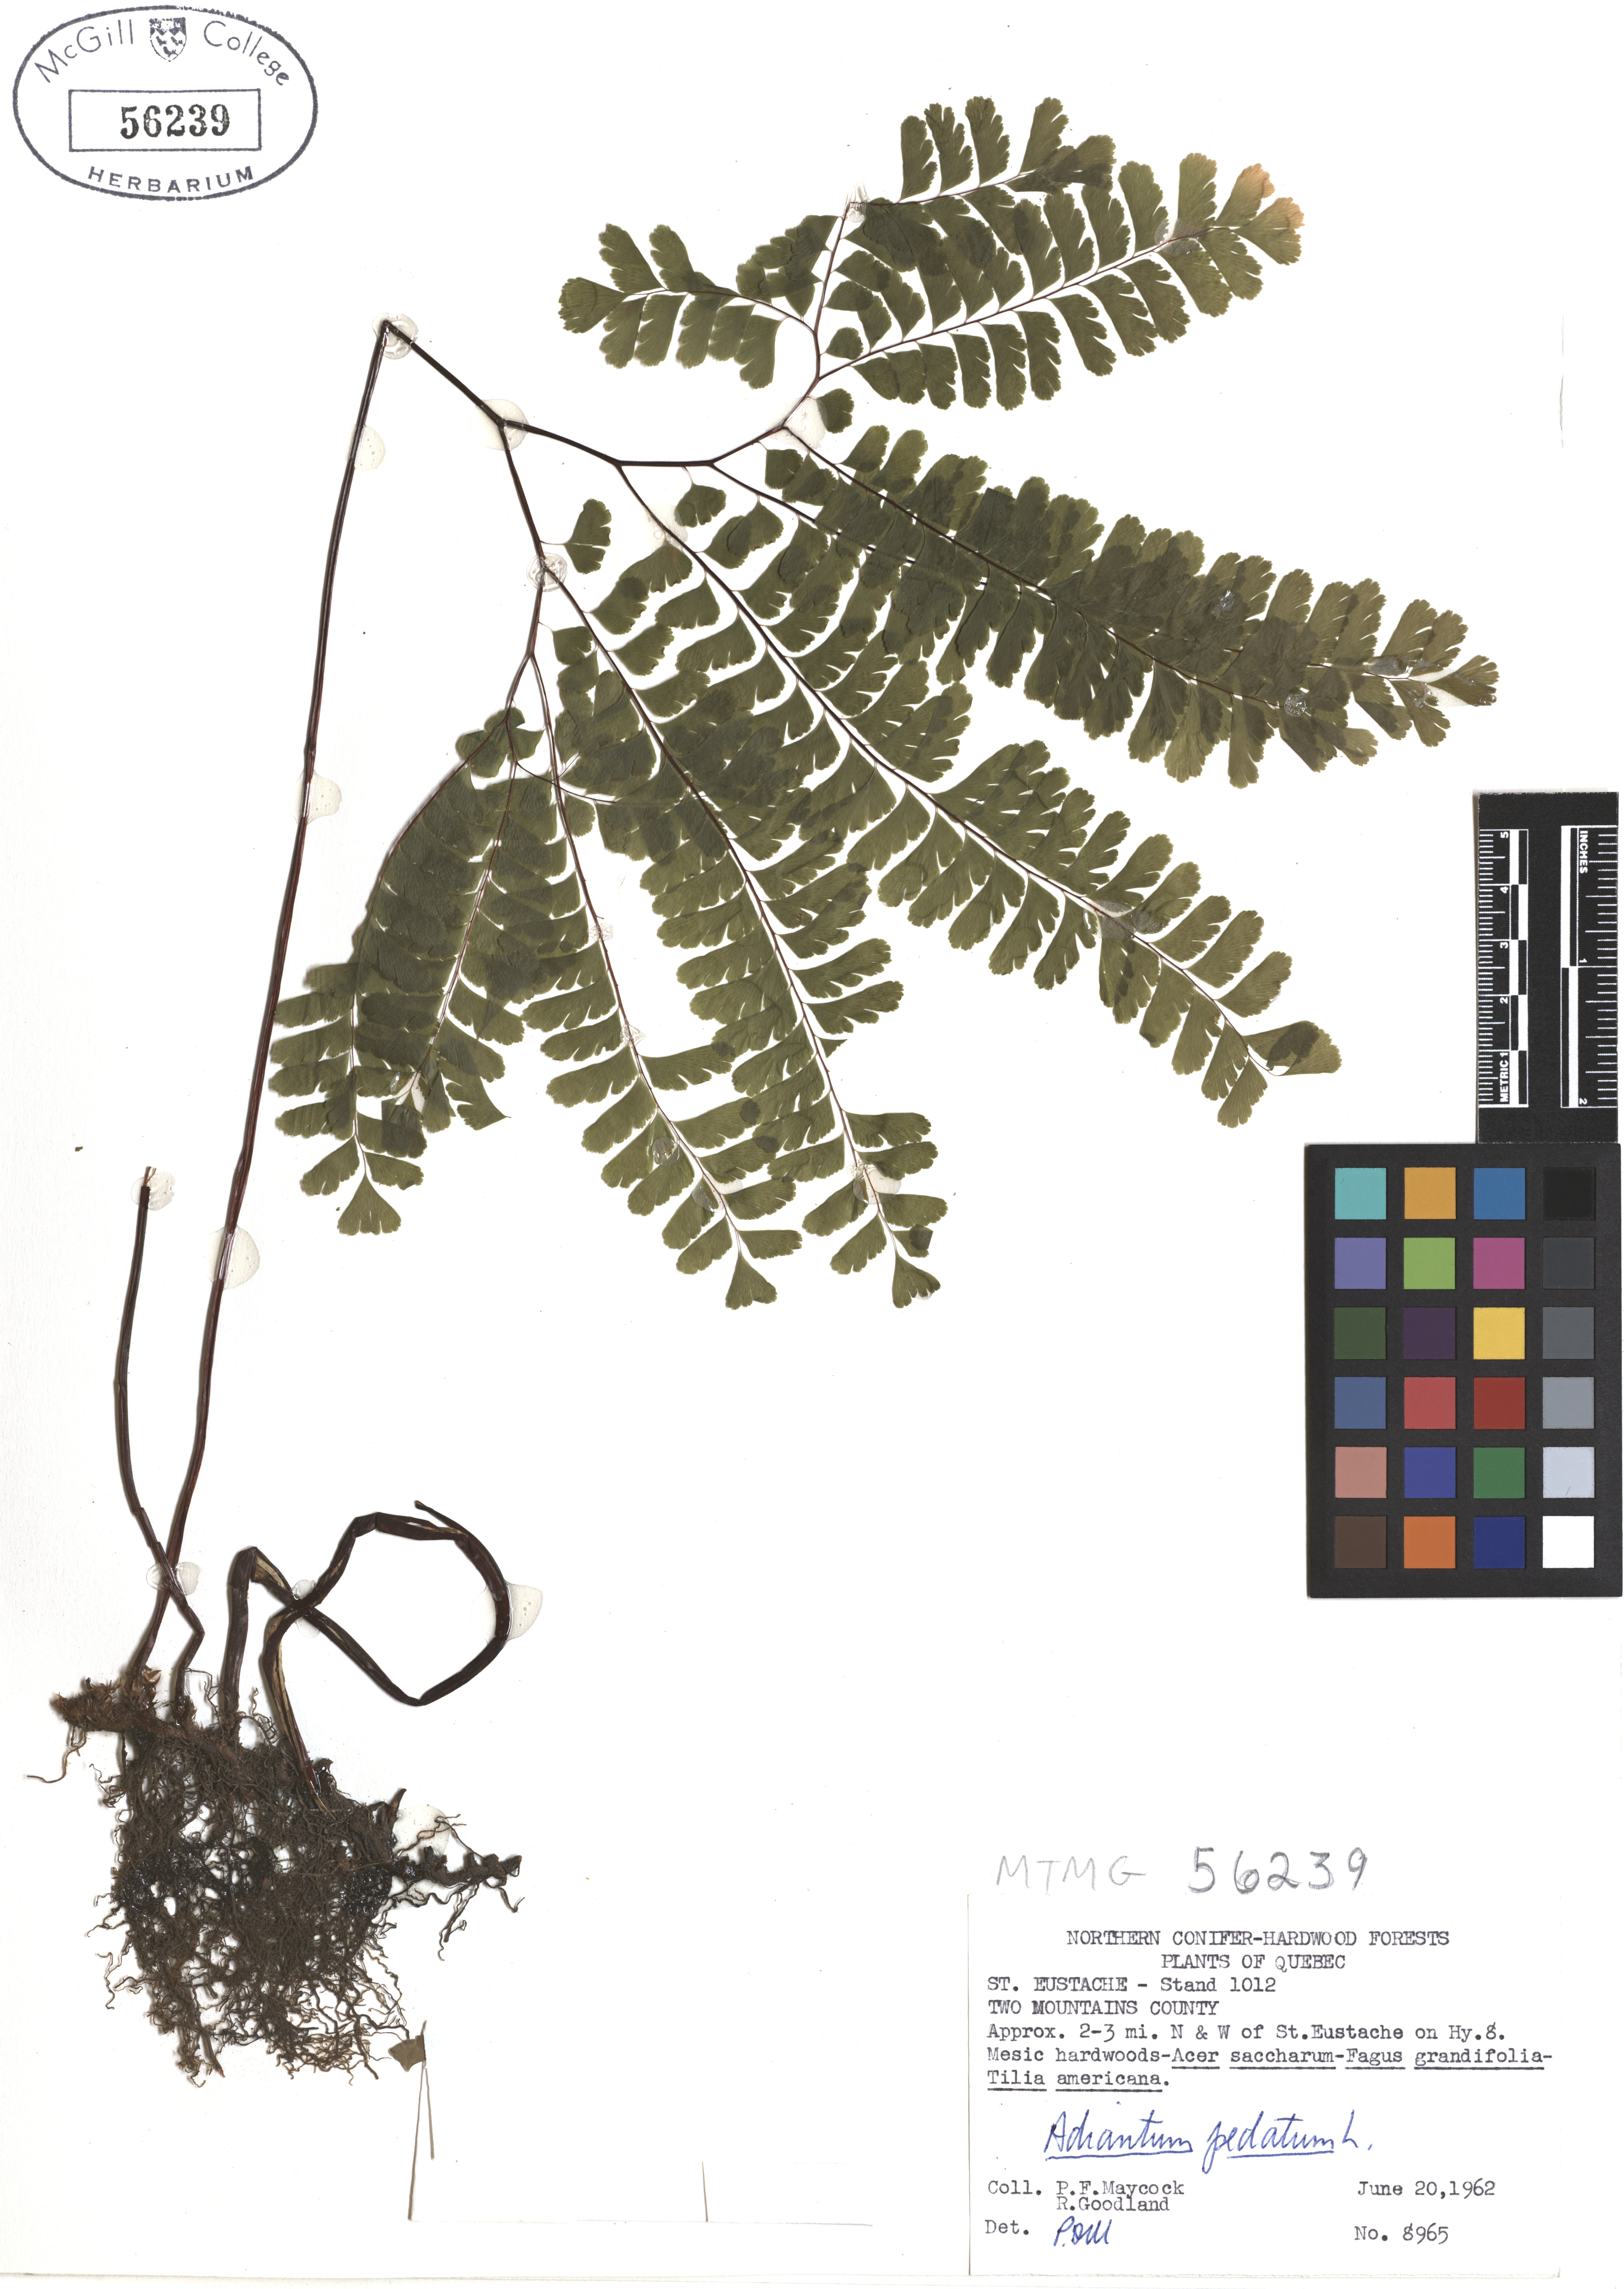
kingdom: Plantae
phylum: Tracheophyta
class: Polypodiopsida
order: Polypodiales
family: Pteridaceae
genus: Adiantum
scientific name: Adiantum pedatum
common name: Five-finger fern
